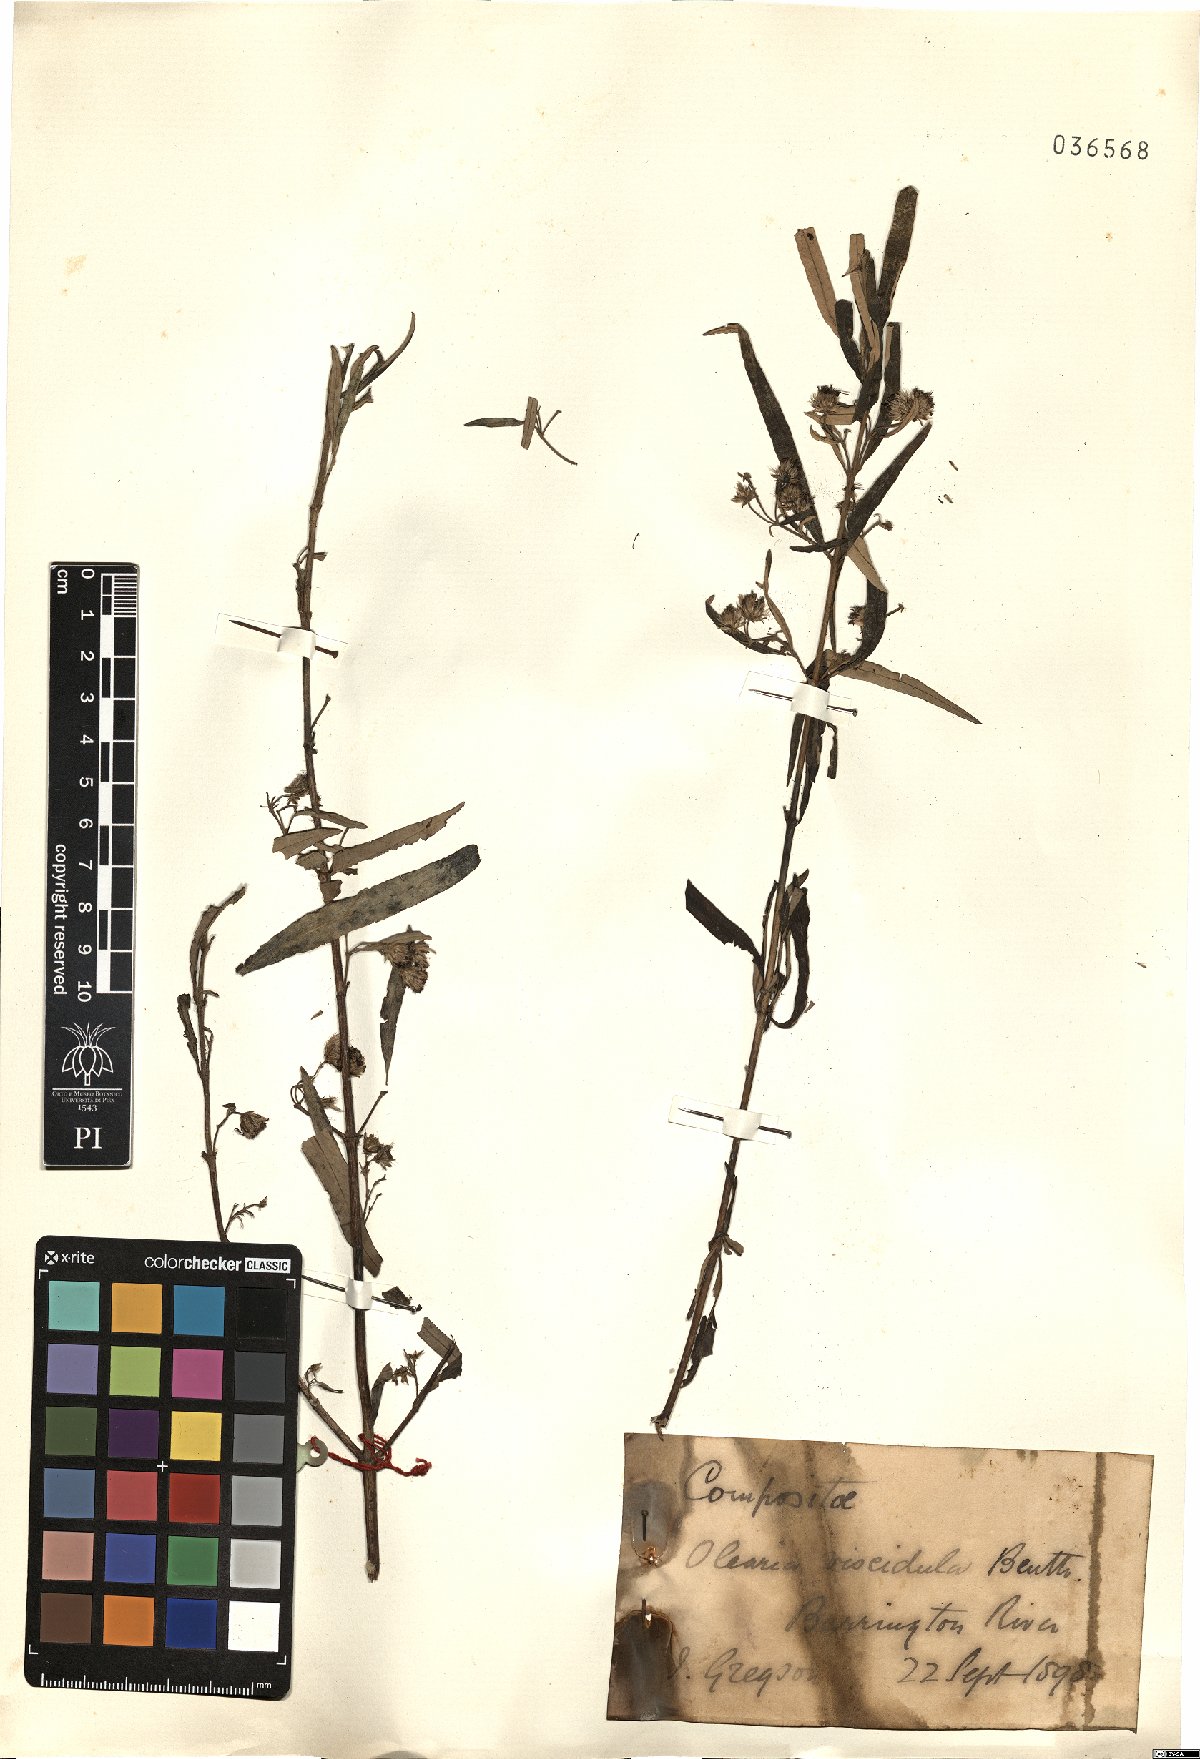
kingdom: Plantae
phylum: Tracheophyta
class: Magnoliopsida
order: Asterales
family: Asteraceae
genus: Olearia
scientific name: Olearia viscidula
